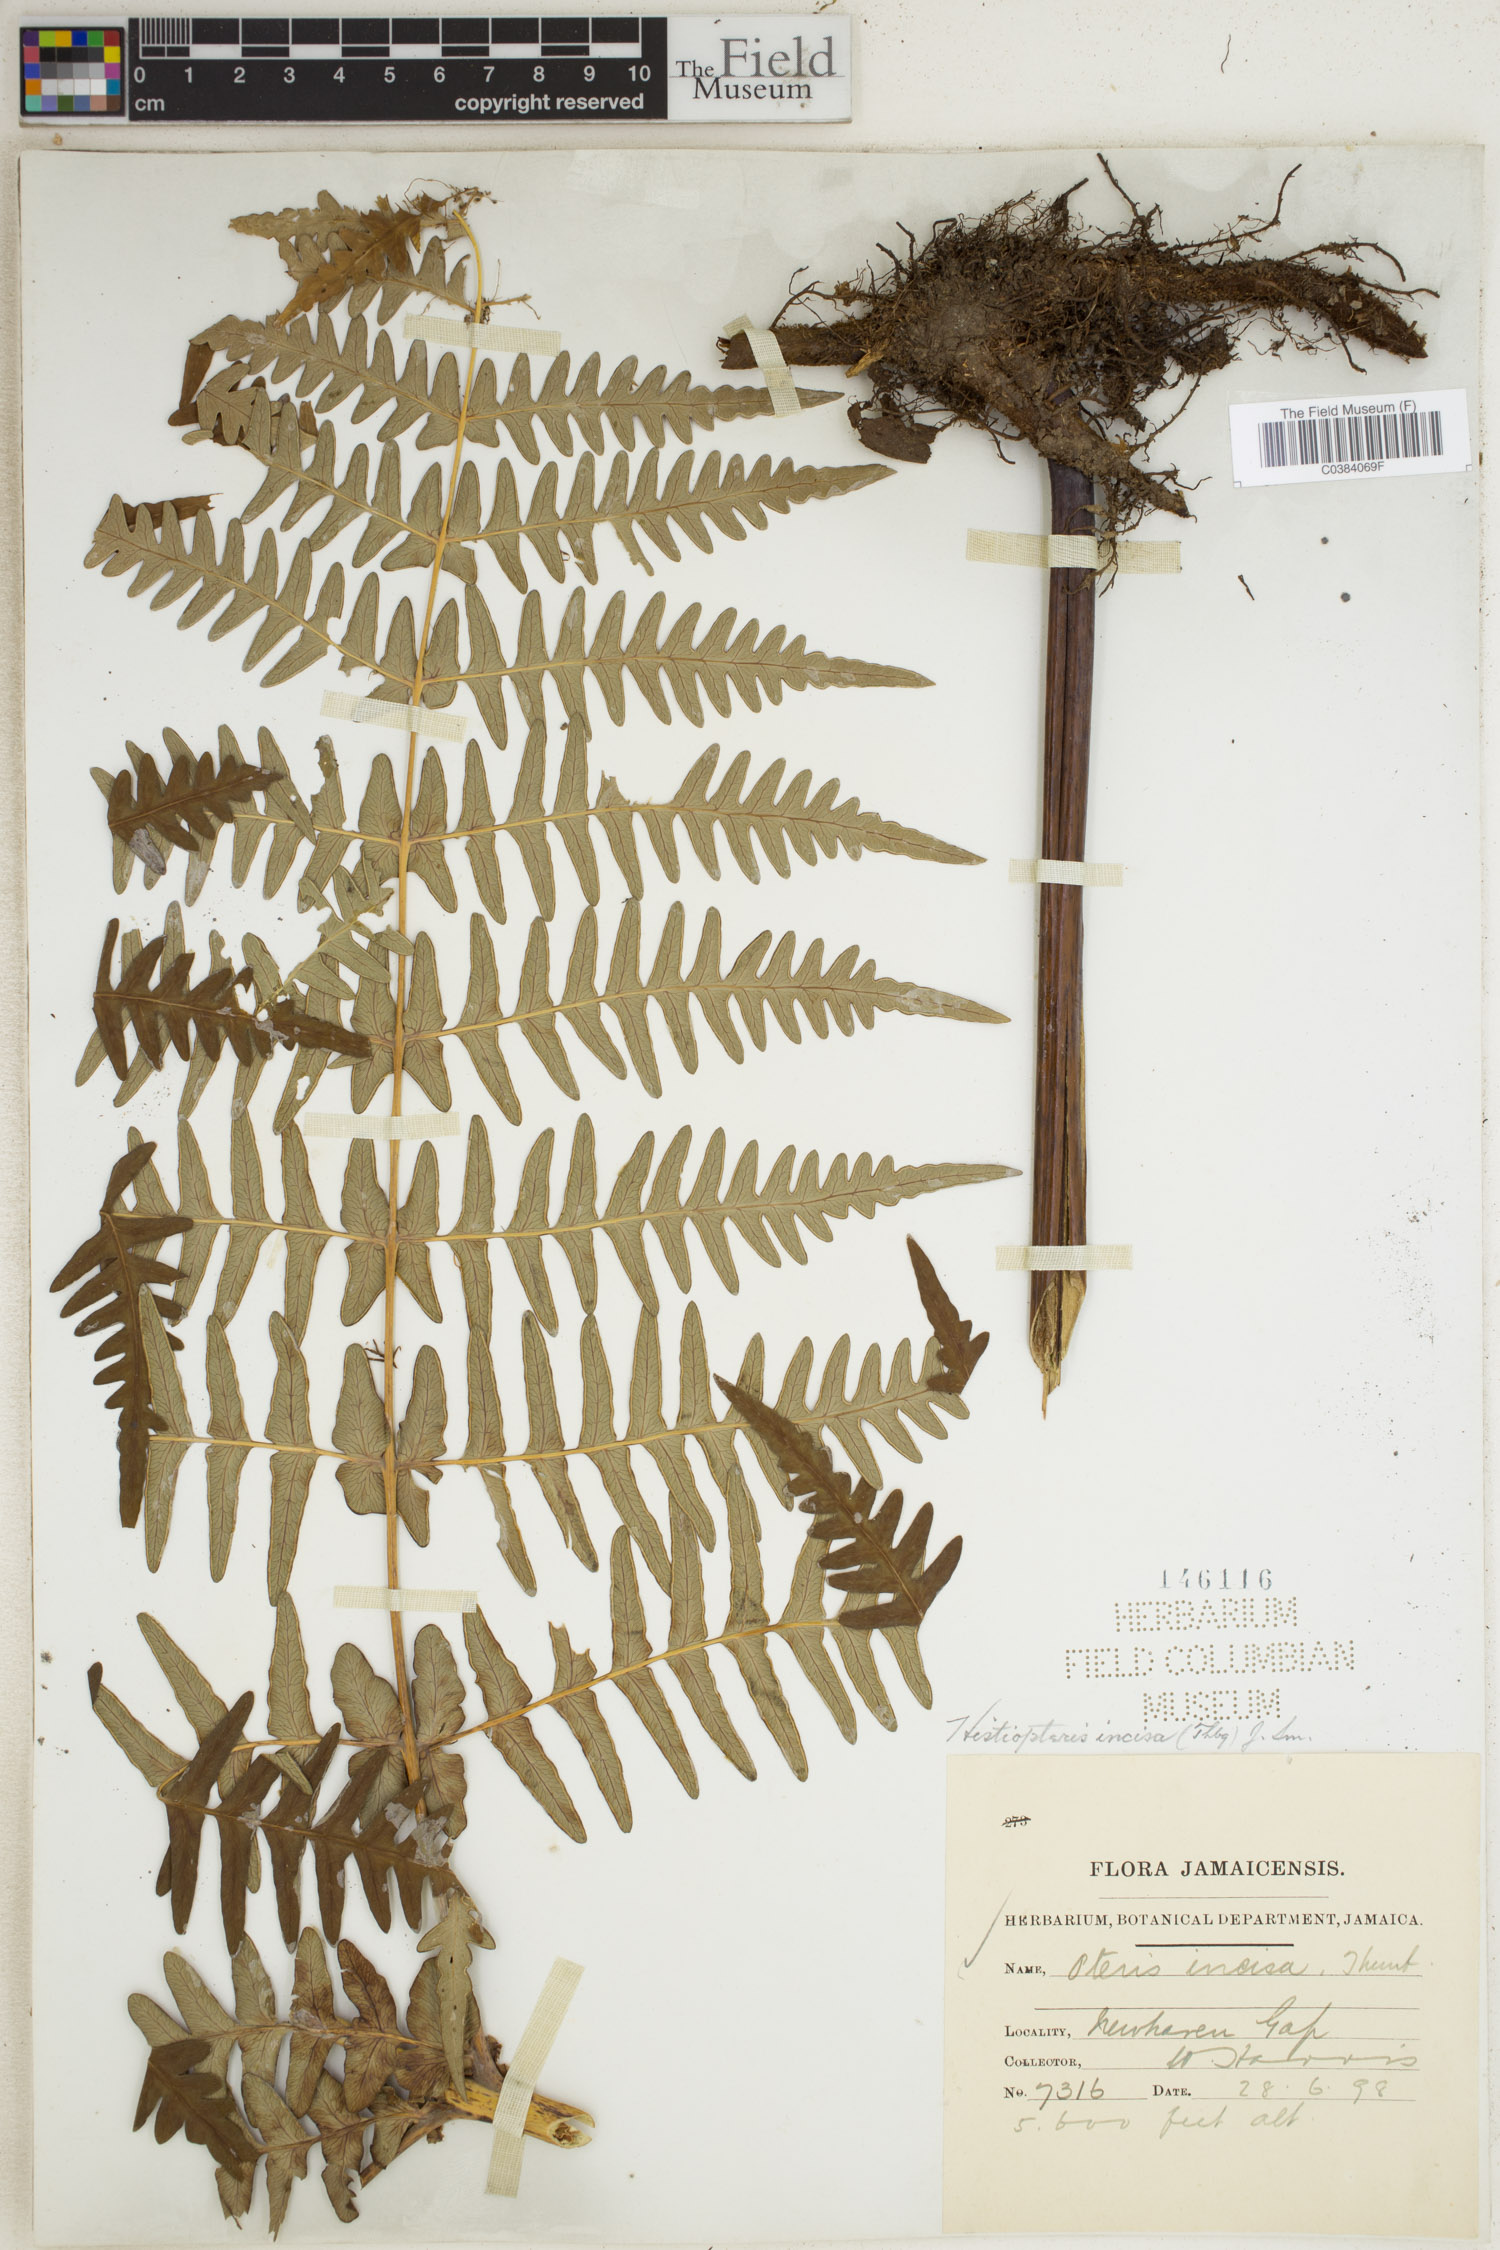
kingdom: Plantae
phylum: Tracheophyta
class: Polypodiopsida
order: Polypodiales
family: Dennstaedtiaceae
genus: Histiopteris
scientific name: Histiopteris incisa
